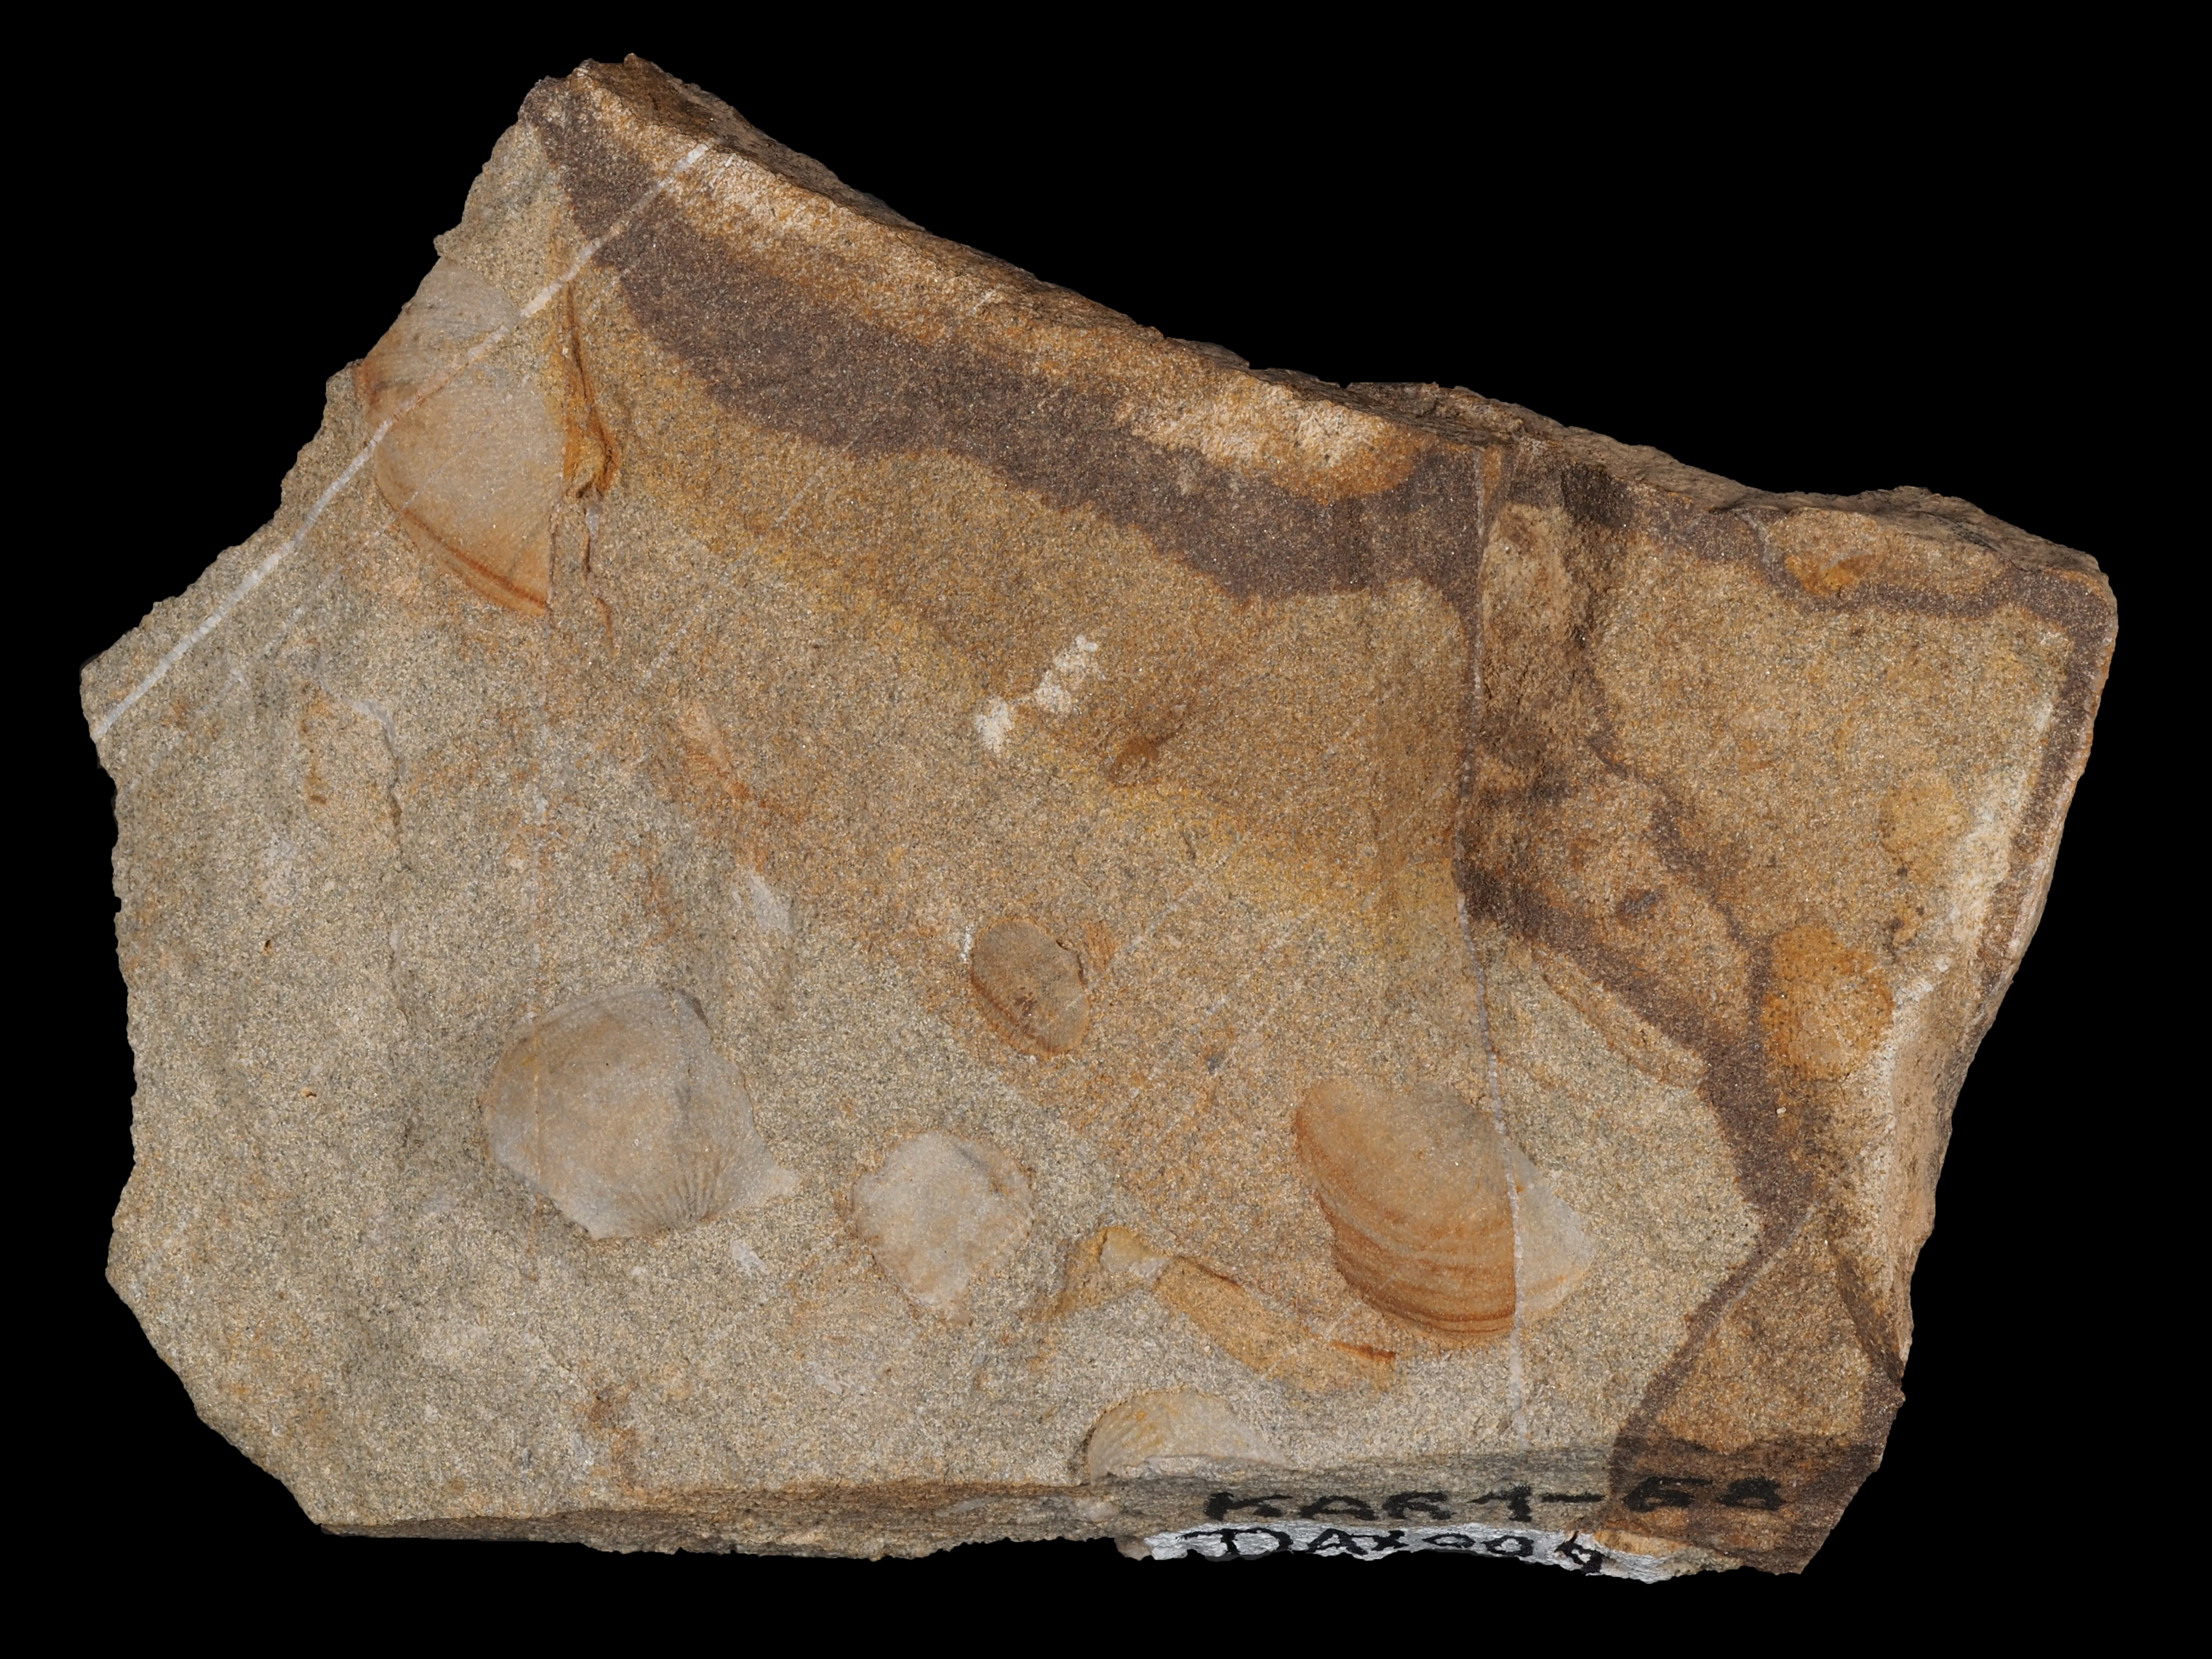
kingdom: Animalia
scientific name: Animalia
